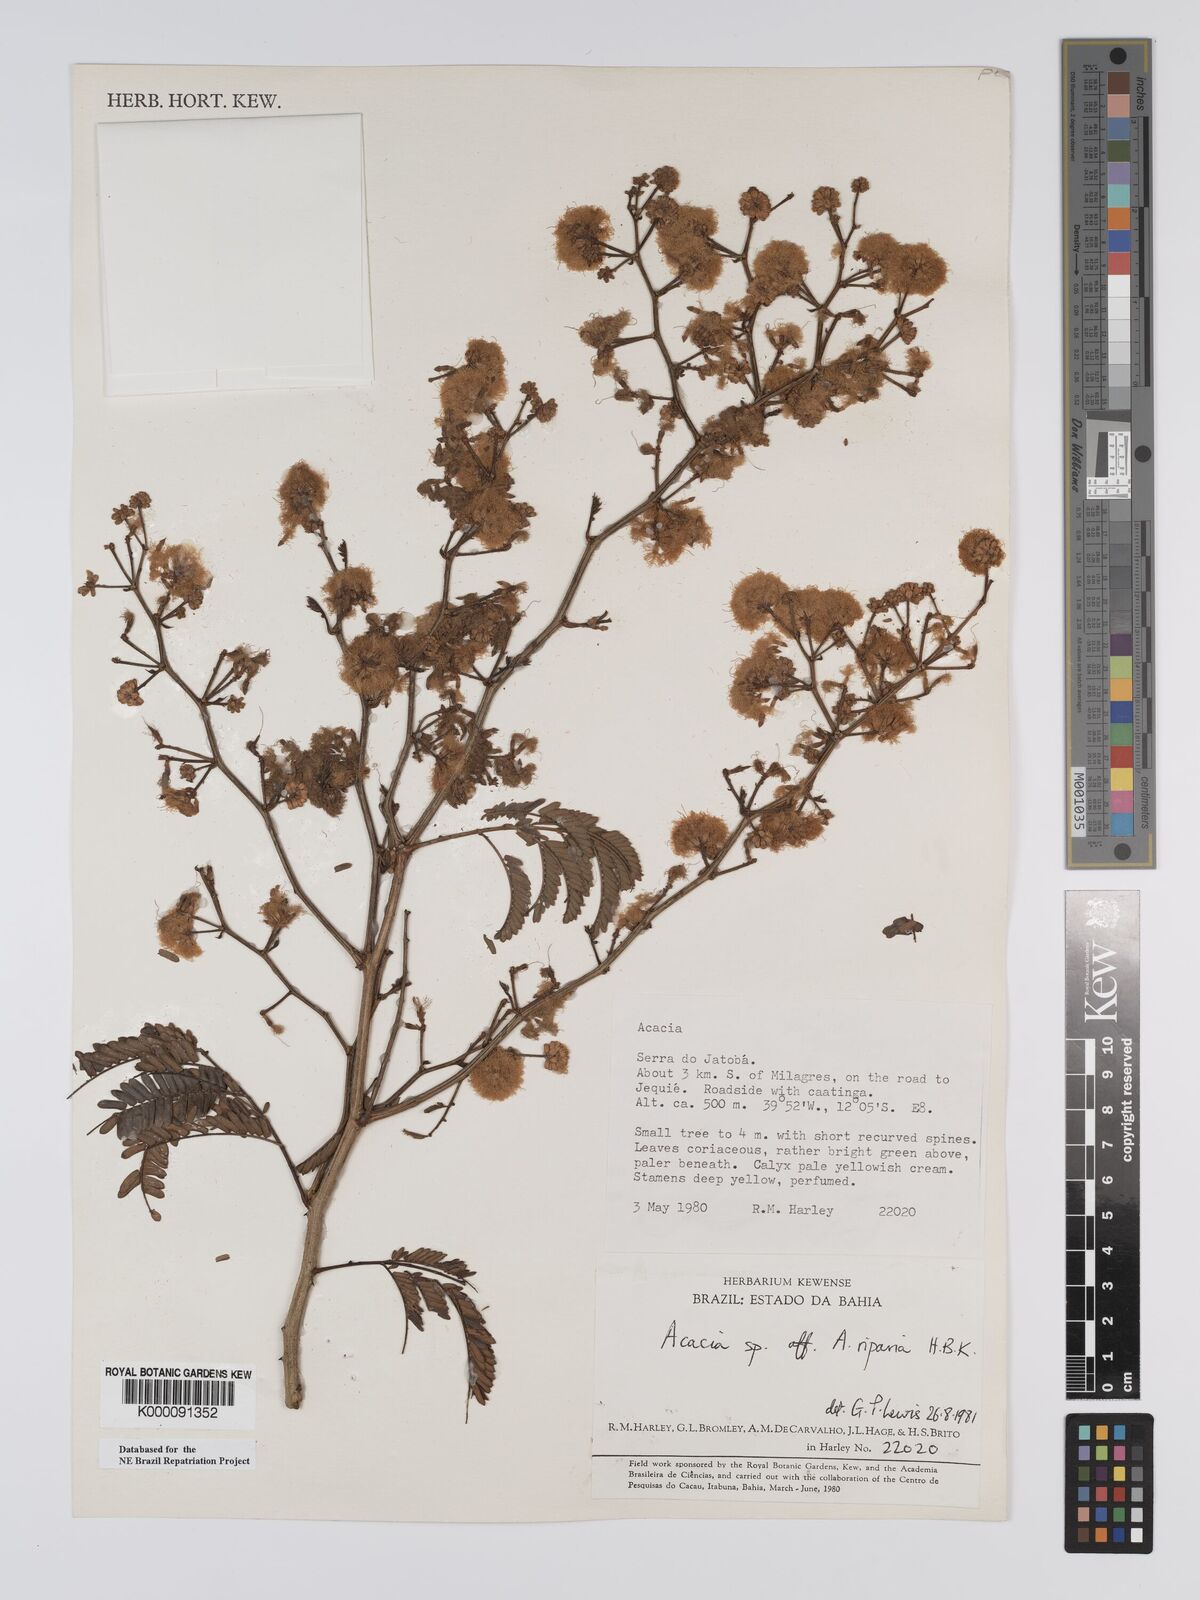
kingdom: Plantae
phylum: Tracheophyta
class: Magnoliopsida
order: Fabales
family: Fabaceae
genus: Senegalia
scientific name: Senegalia riparia
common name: Catch-and-keep
